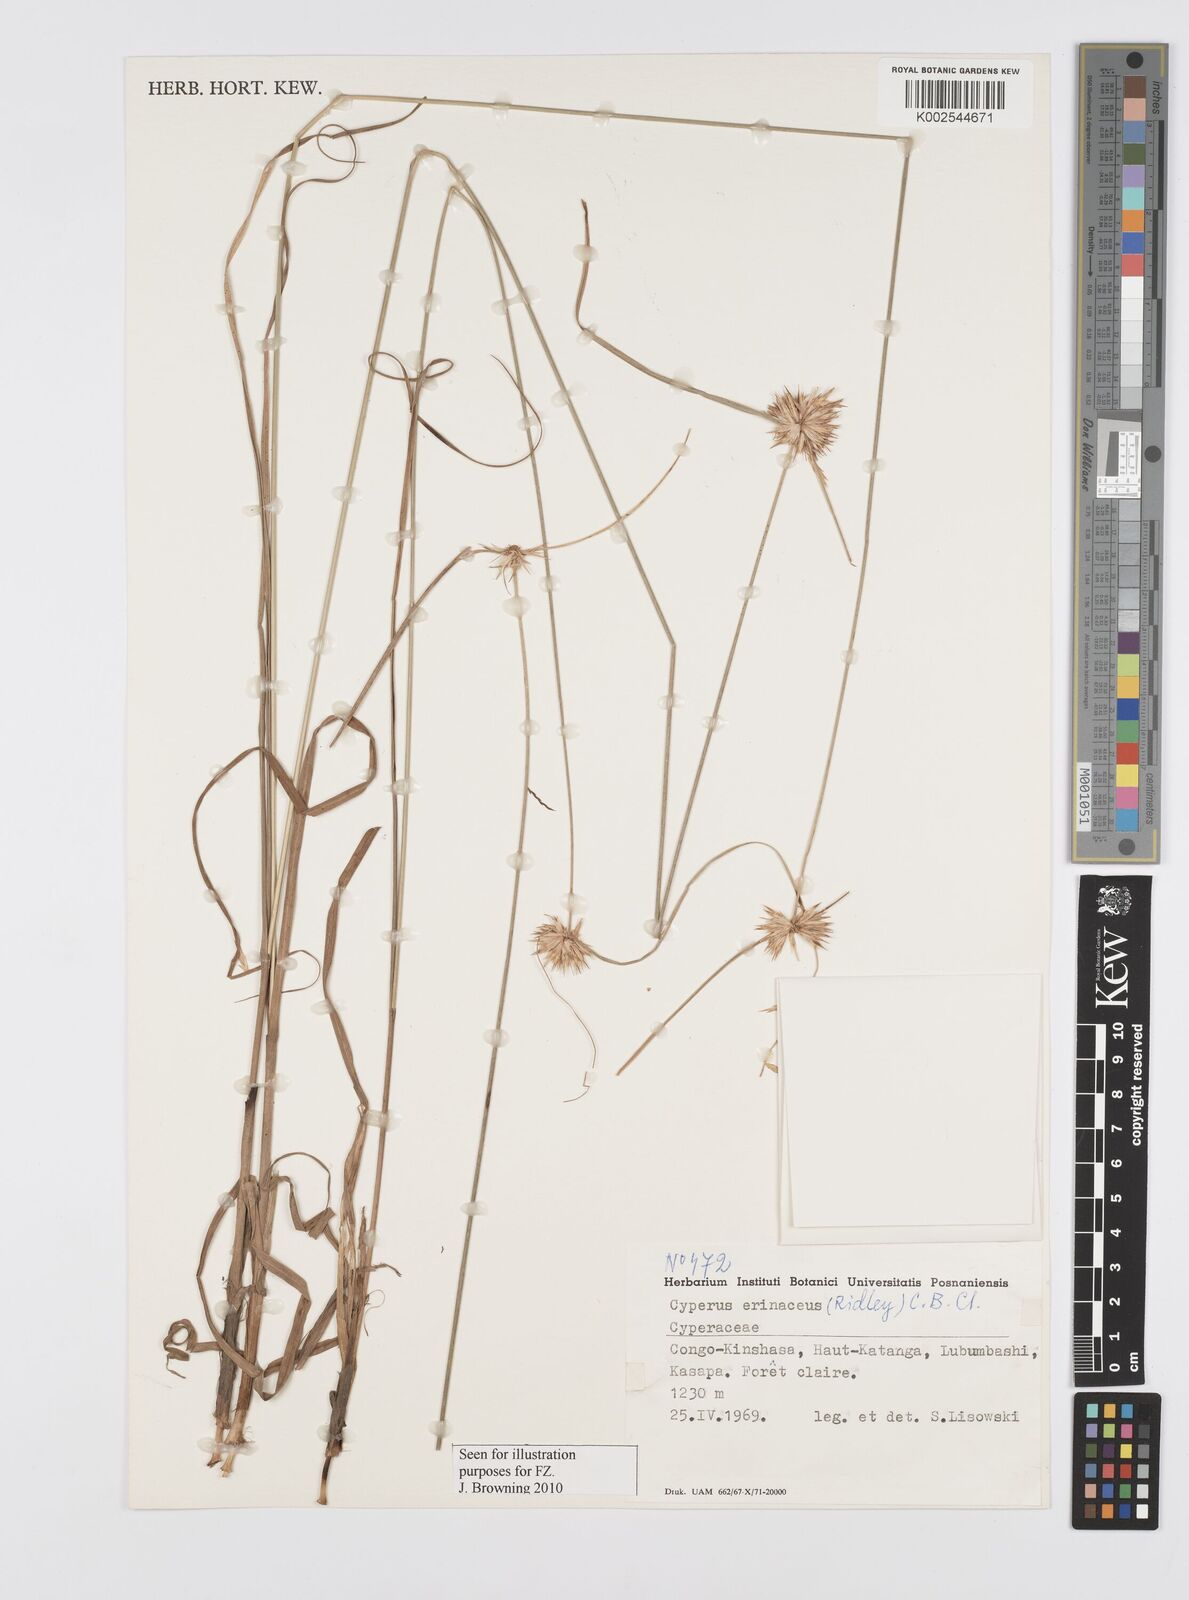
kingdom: Plantae
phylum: Tracheophyta
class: Liliopsida
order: Poales
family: Cyperaceae
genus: Cyperus
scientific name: Cyperus erinaceus
